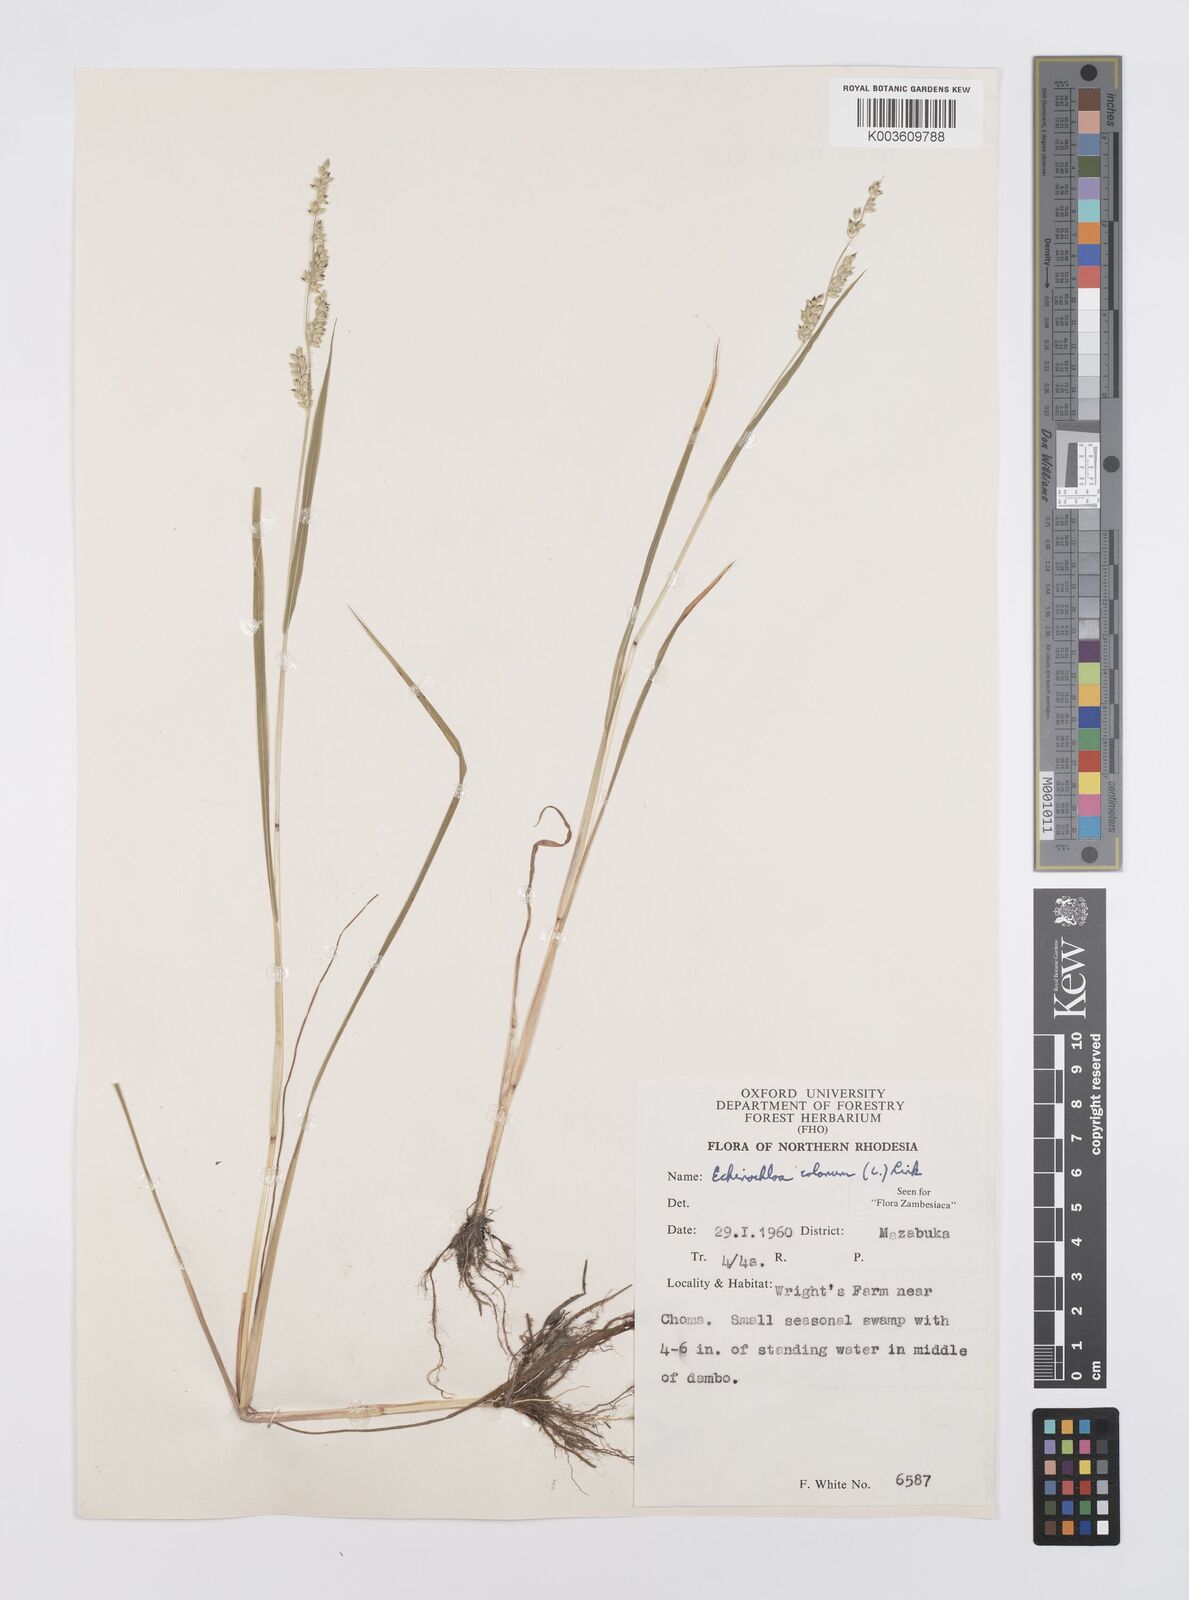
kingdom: Plantae
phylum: Tracheophyta
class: Liliopsida
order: Poales
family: Poaceae
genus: Echinochloa
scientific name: Echinochloa colonum
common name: Jungle rice
